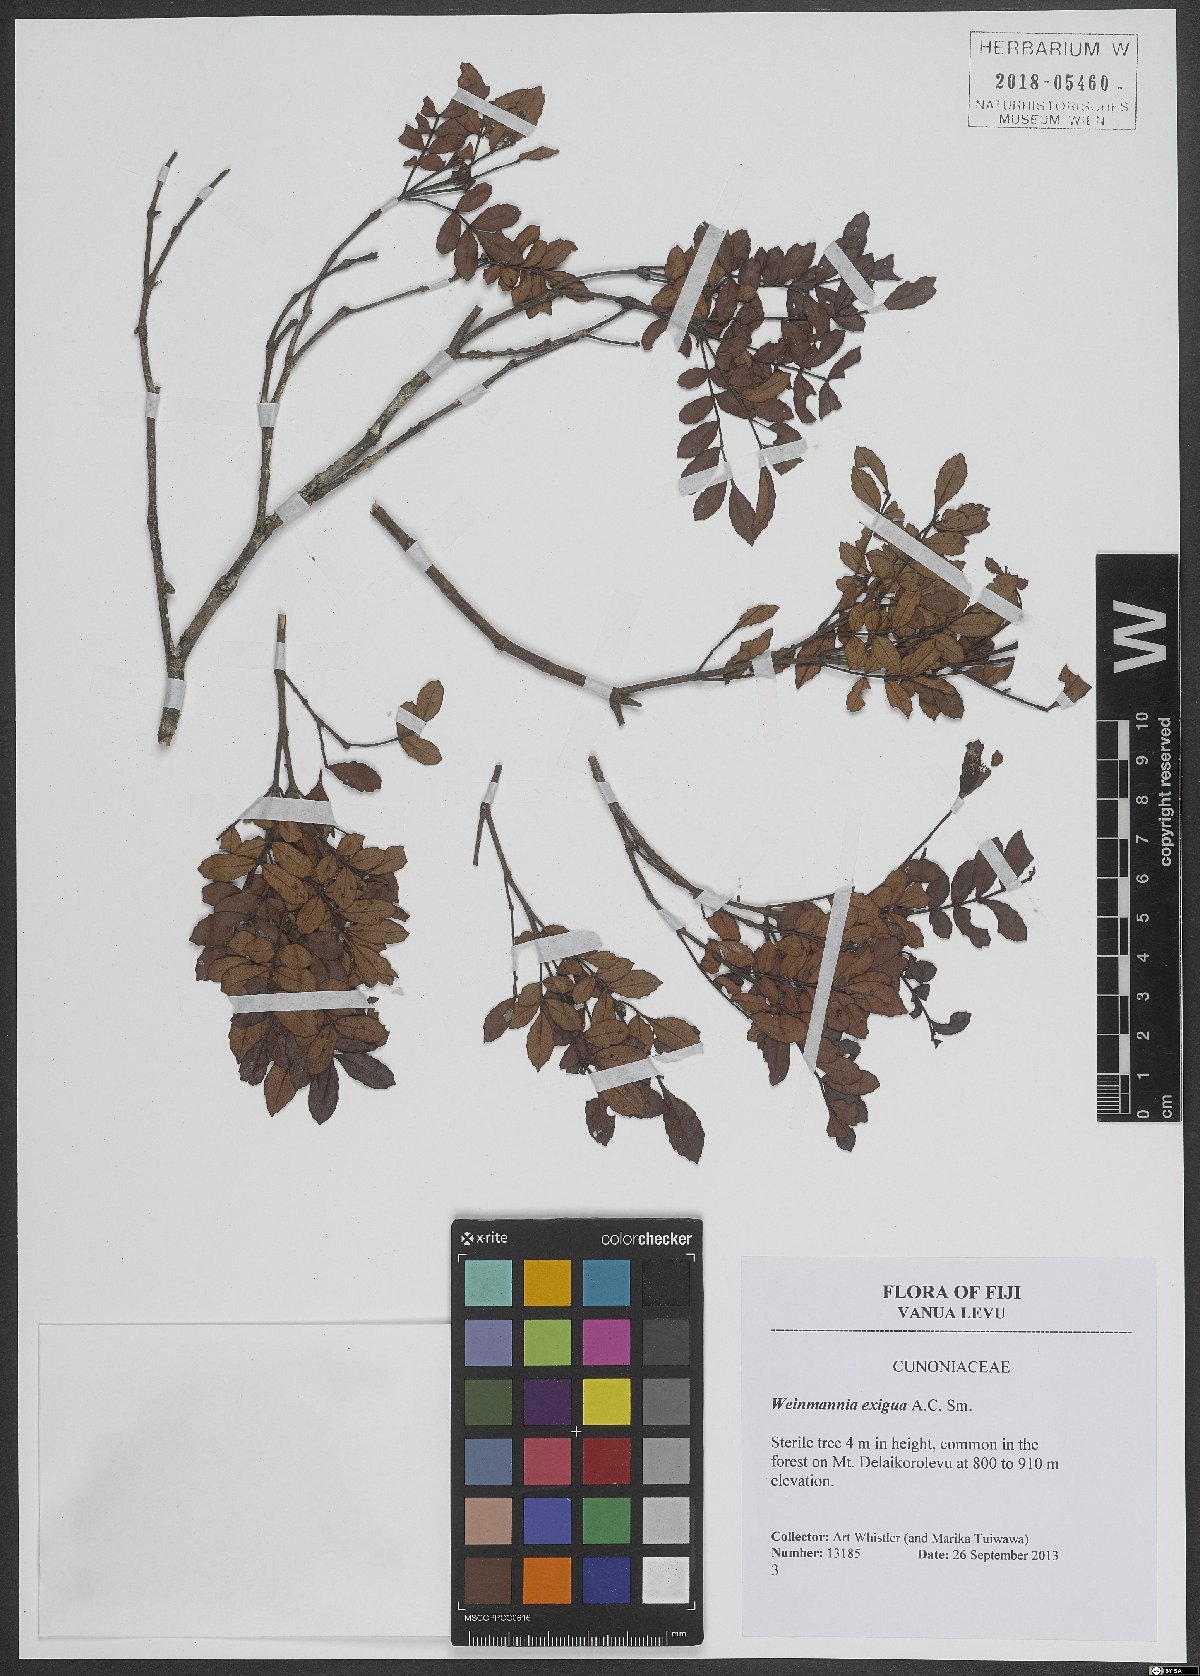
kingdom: Plantae
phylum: Tracheophyta
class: Magnoliopsida
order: Oxalidales
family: Cunoniaceae
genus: Pterophylla
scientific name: Pterophylla exigua
